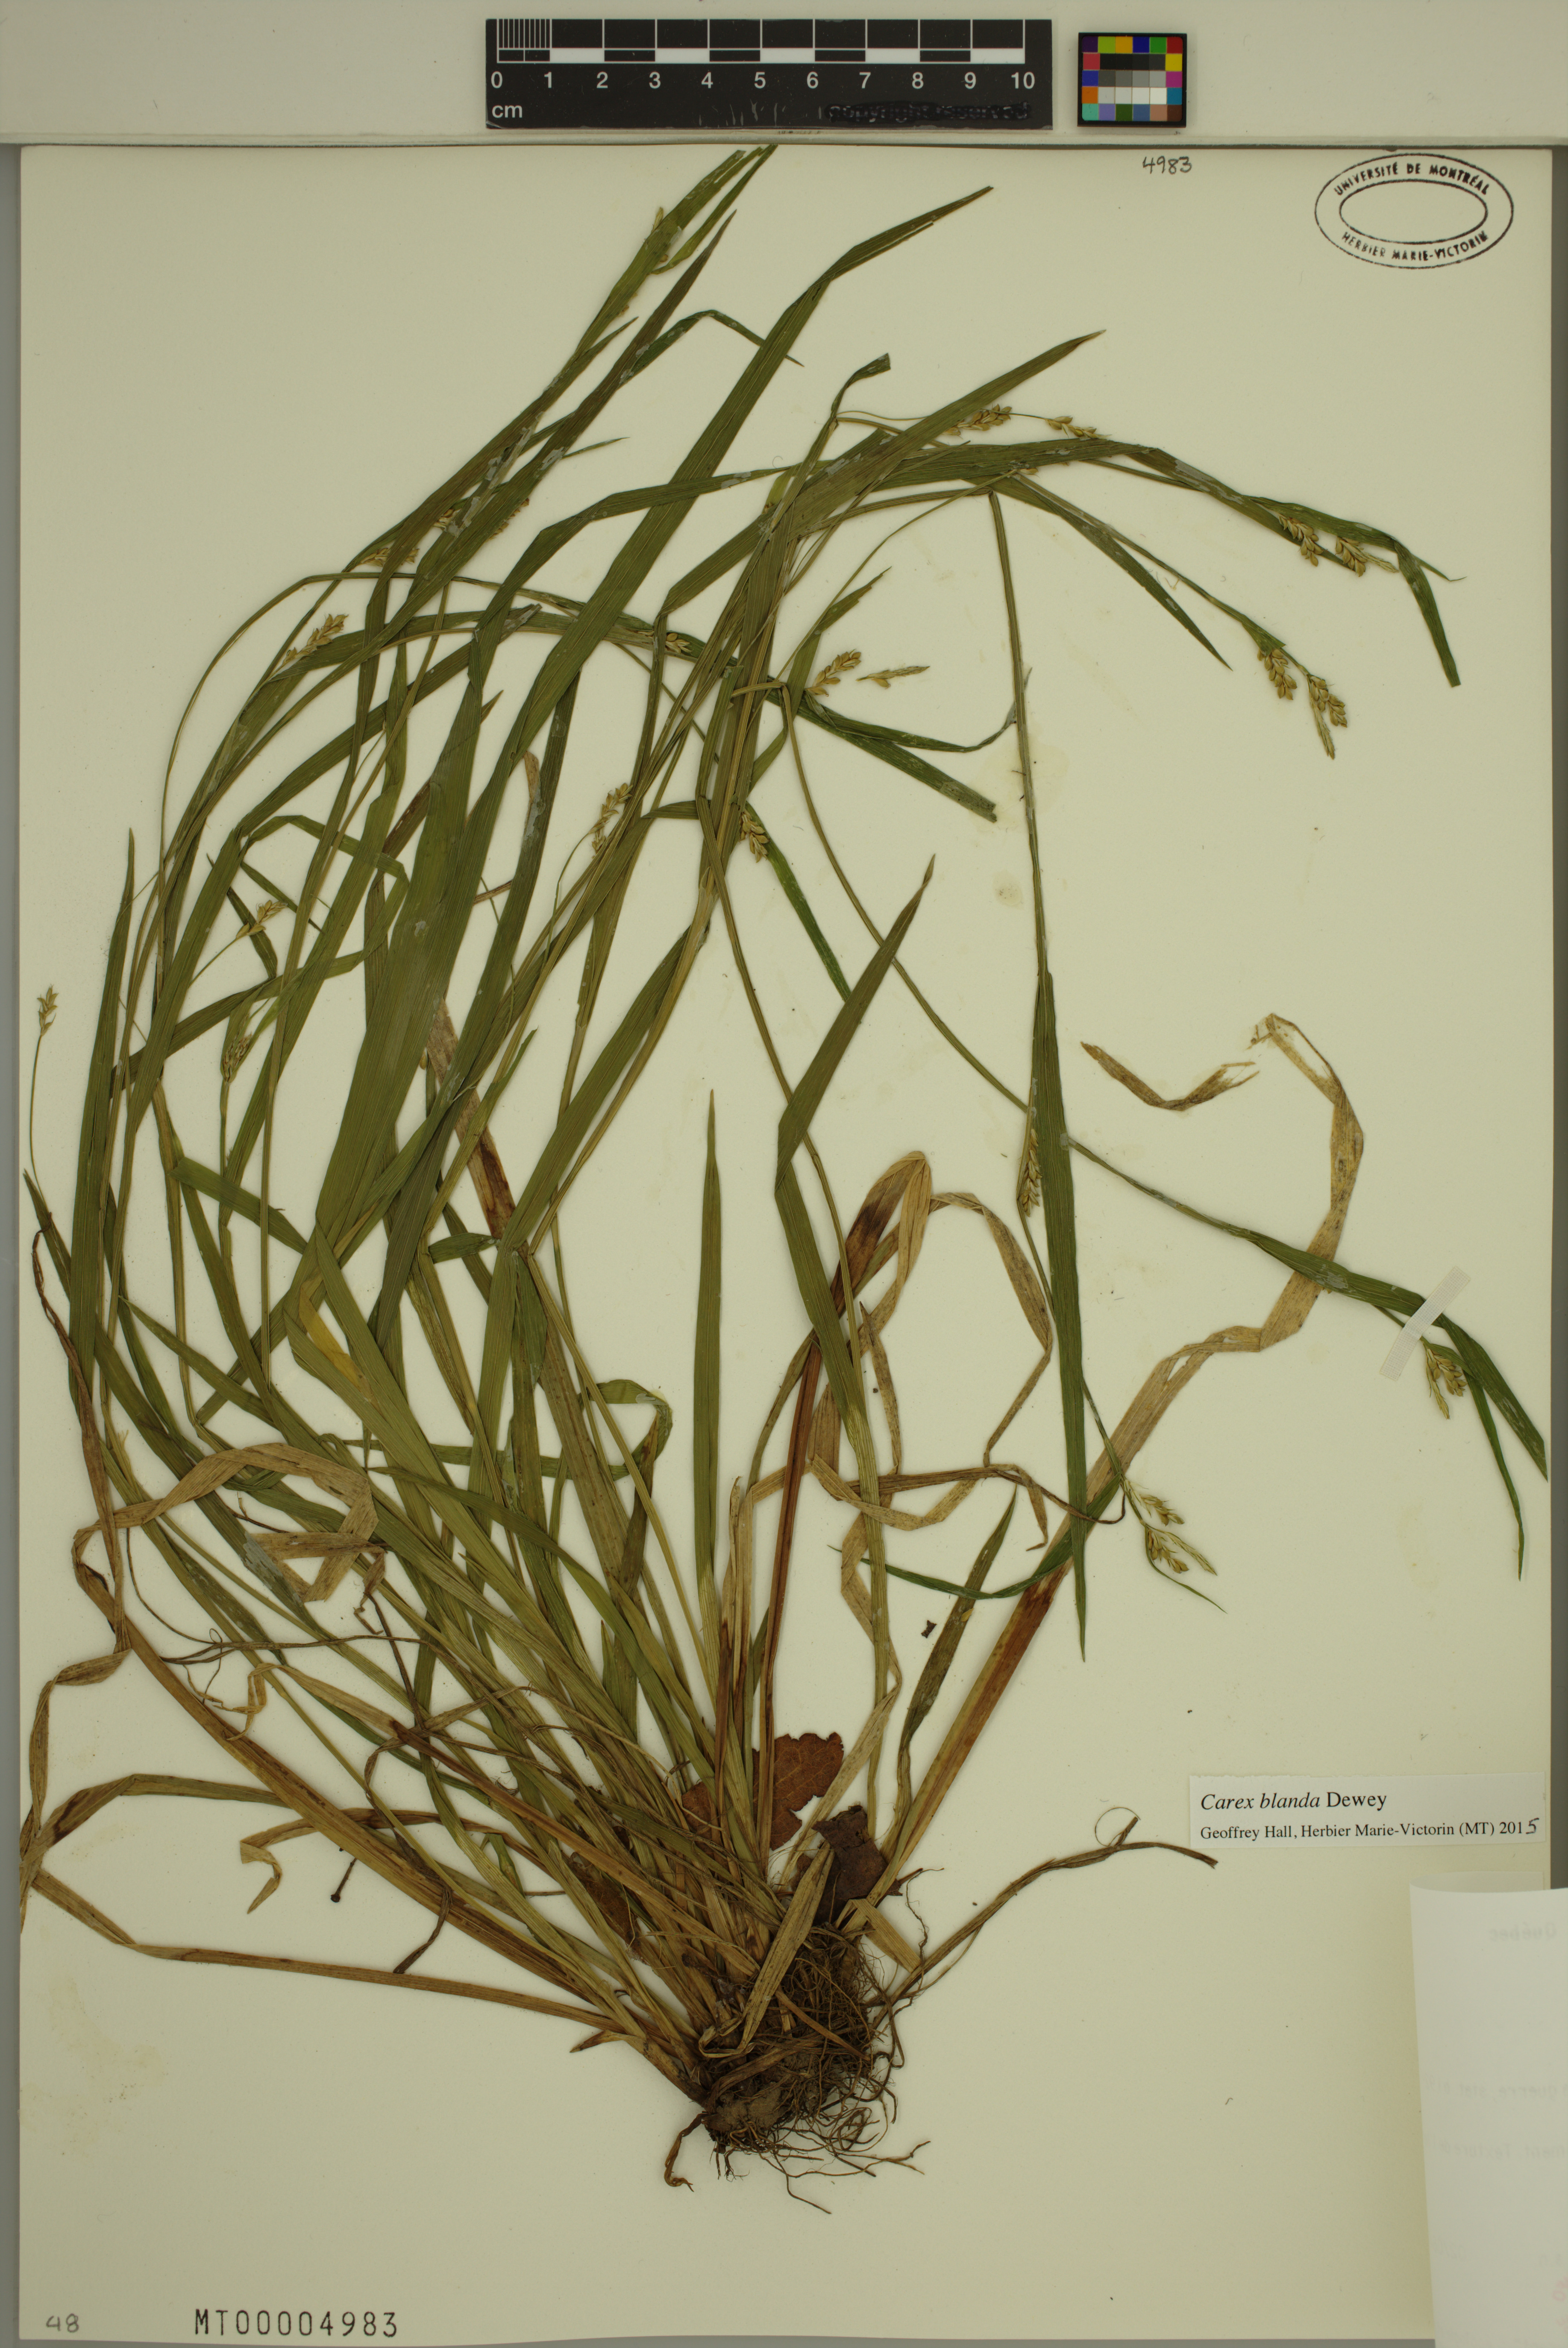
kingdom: Plantae
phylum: Tracheophyta
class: Liliopsida
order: Poales
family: Cyperaceae
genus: Carex
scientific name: Carex blanda
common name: Bland sedge
